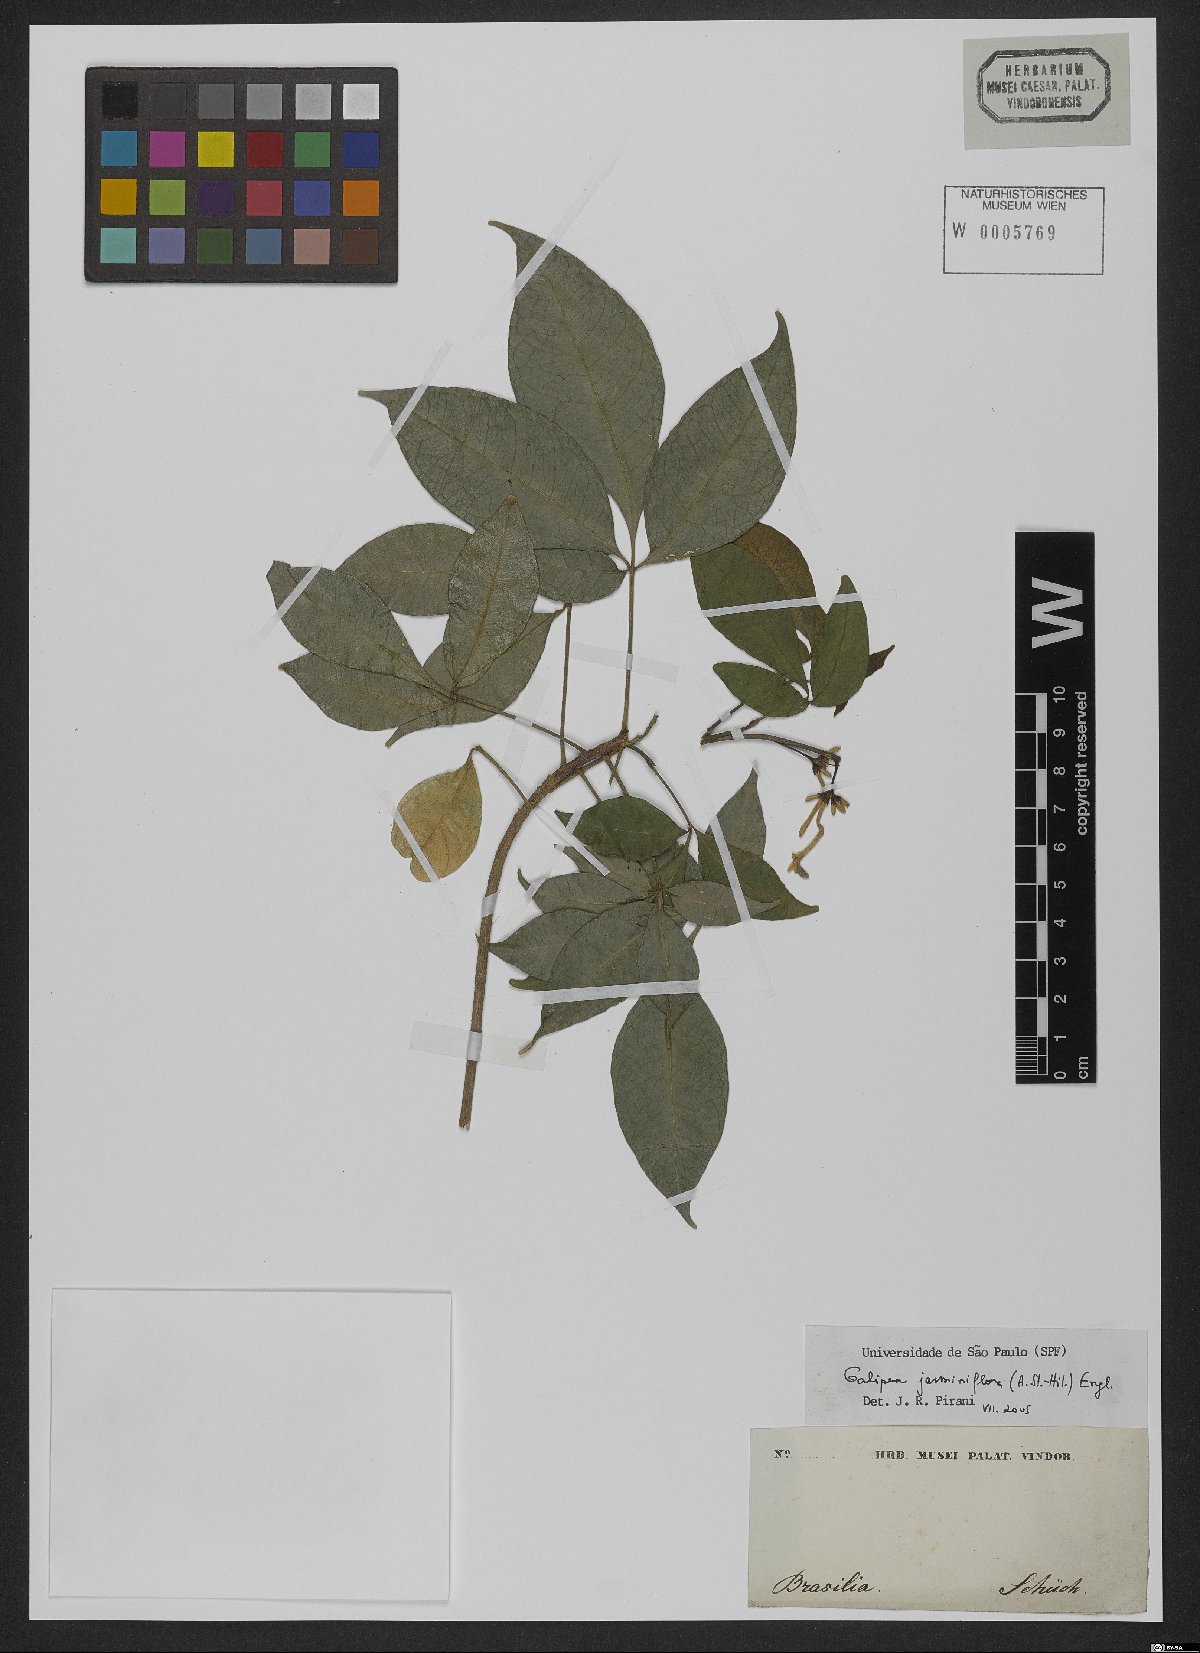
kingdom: Plantae
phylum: Tracheophyta
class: Magnoliopsida
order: Sapindales
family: Rutaceae
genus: Galipea
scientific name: Galipea jasminiflora
